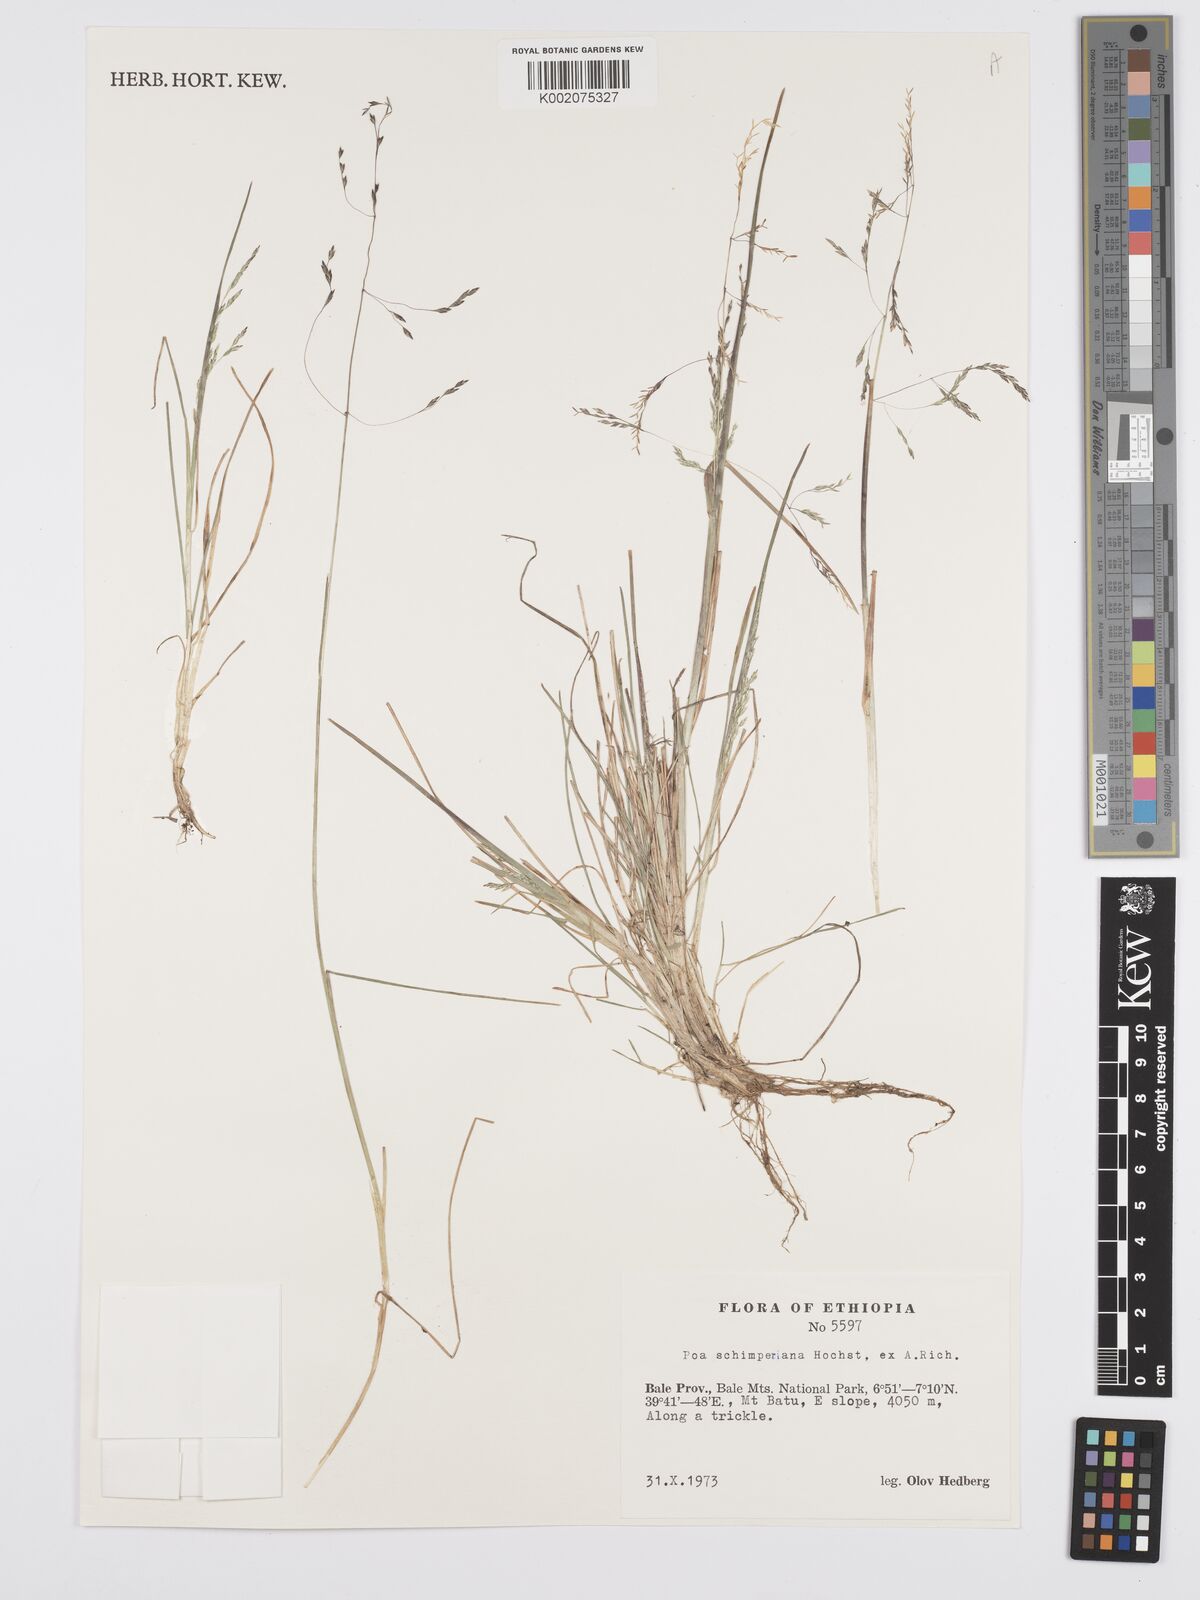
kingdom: Plantae
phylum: Tracheophyta
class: Liliopsida
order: Poales
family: Poaceae
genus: Poa
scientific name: Poa schimperiana
